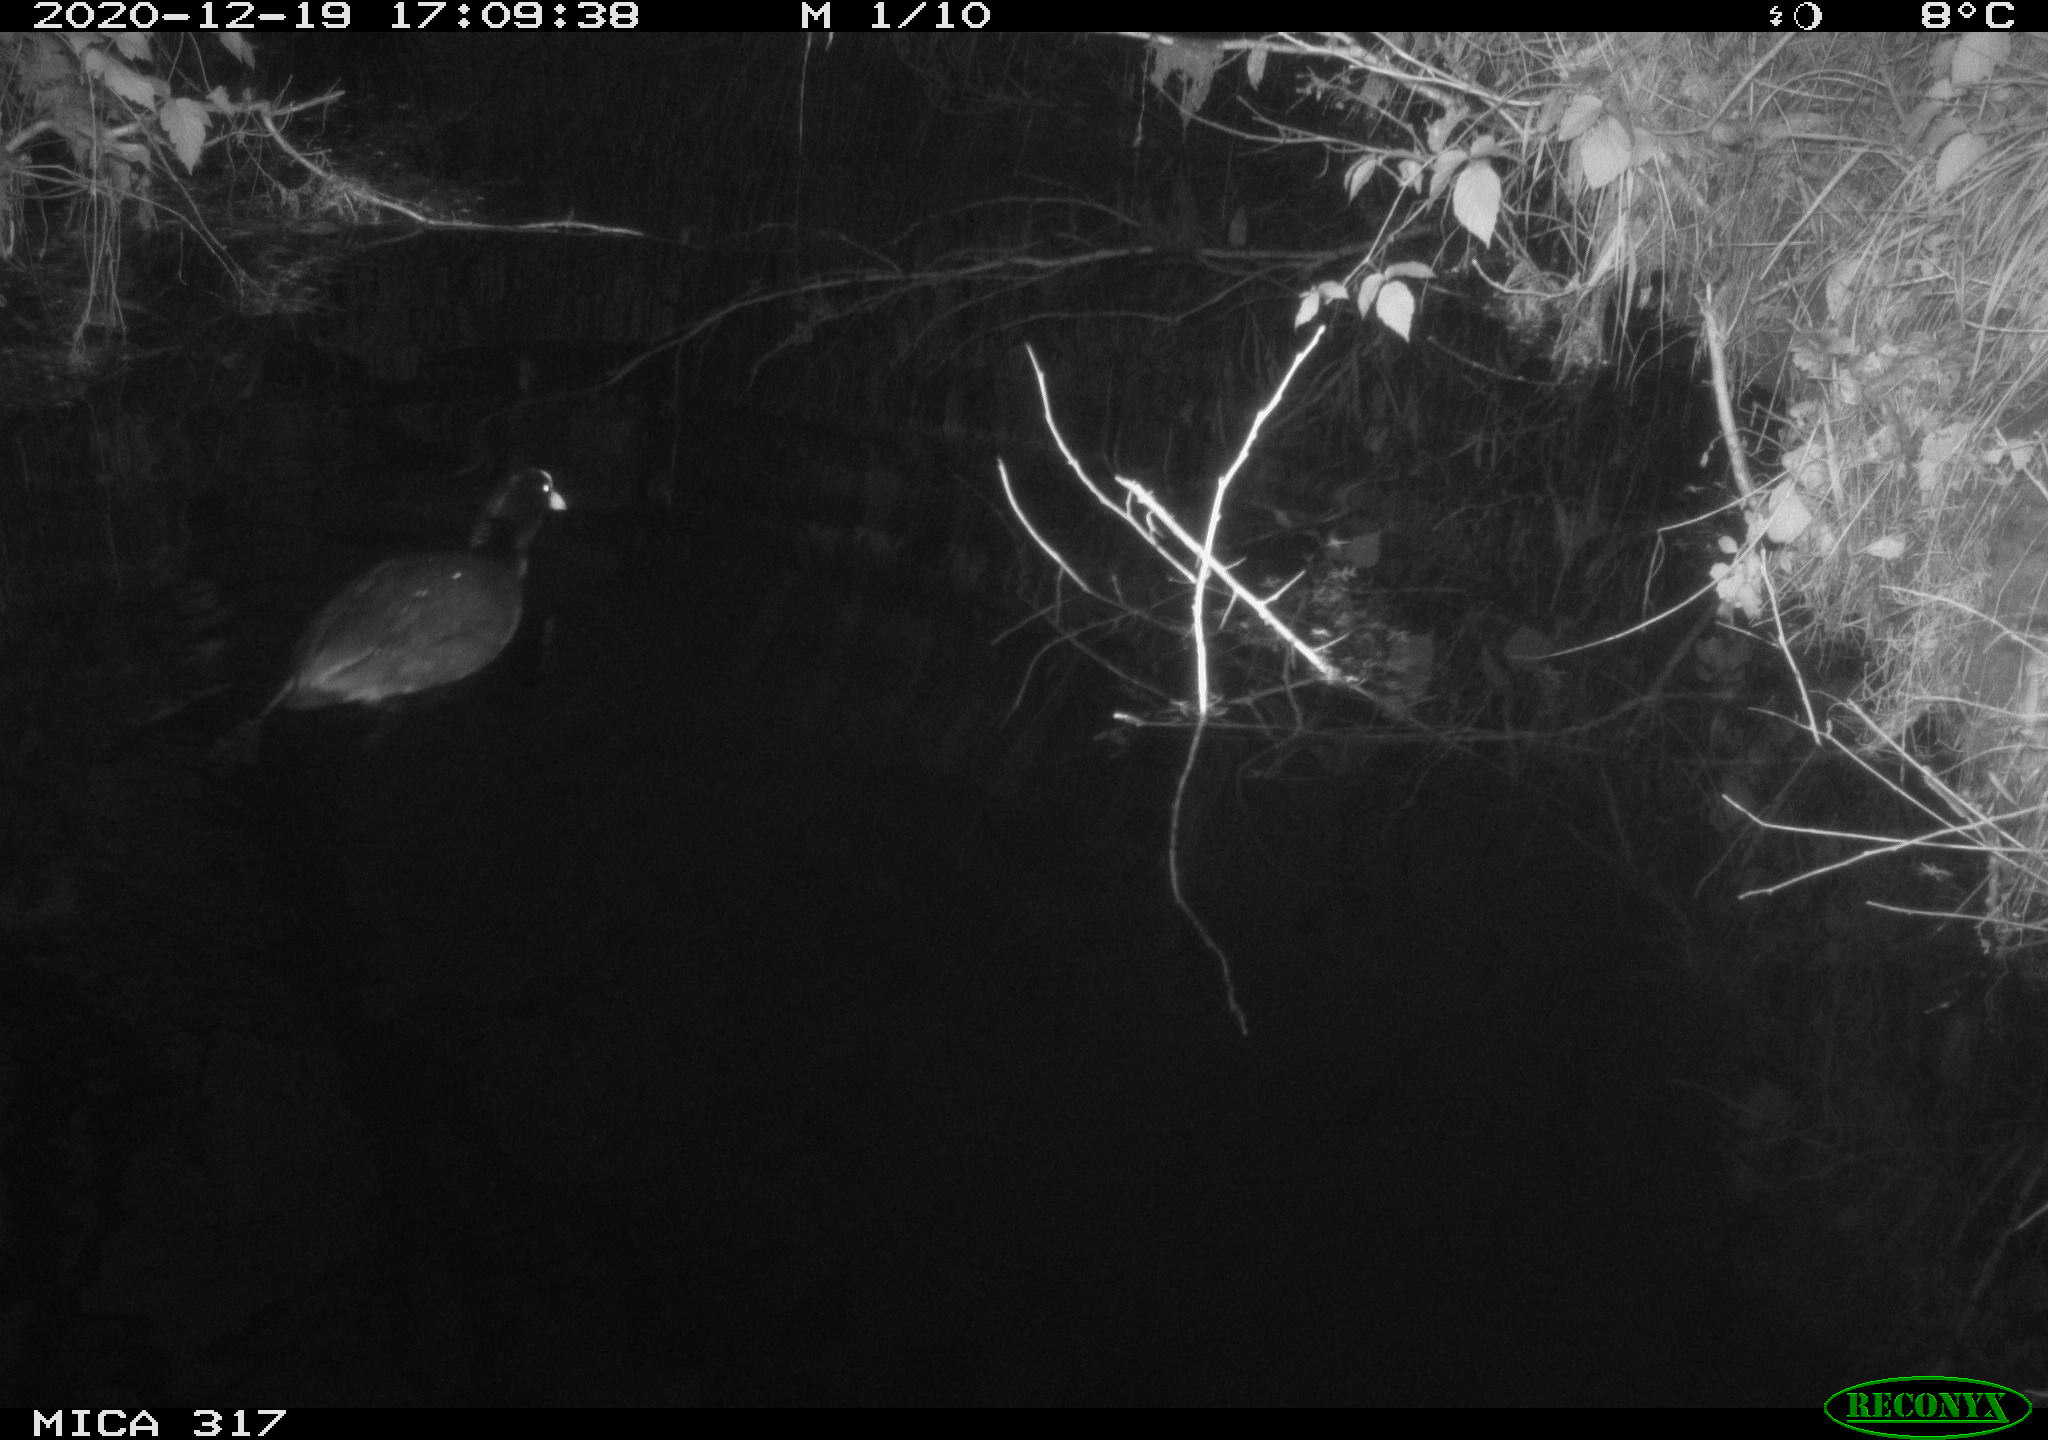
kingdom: Animalia
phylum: Chordata
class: Aves
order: Gruiformes
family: Rallidae
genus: Fulica
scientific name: Fulica atra
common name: Eurasian coot
